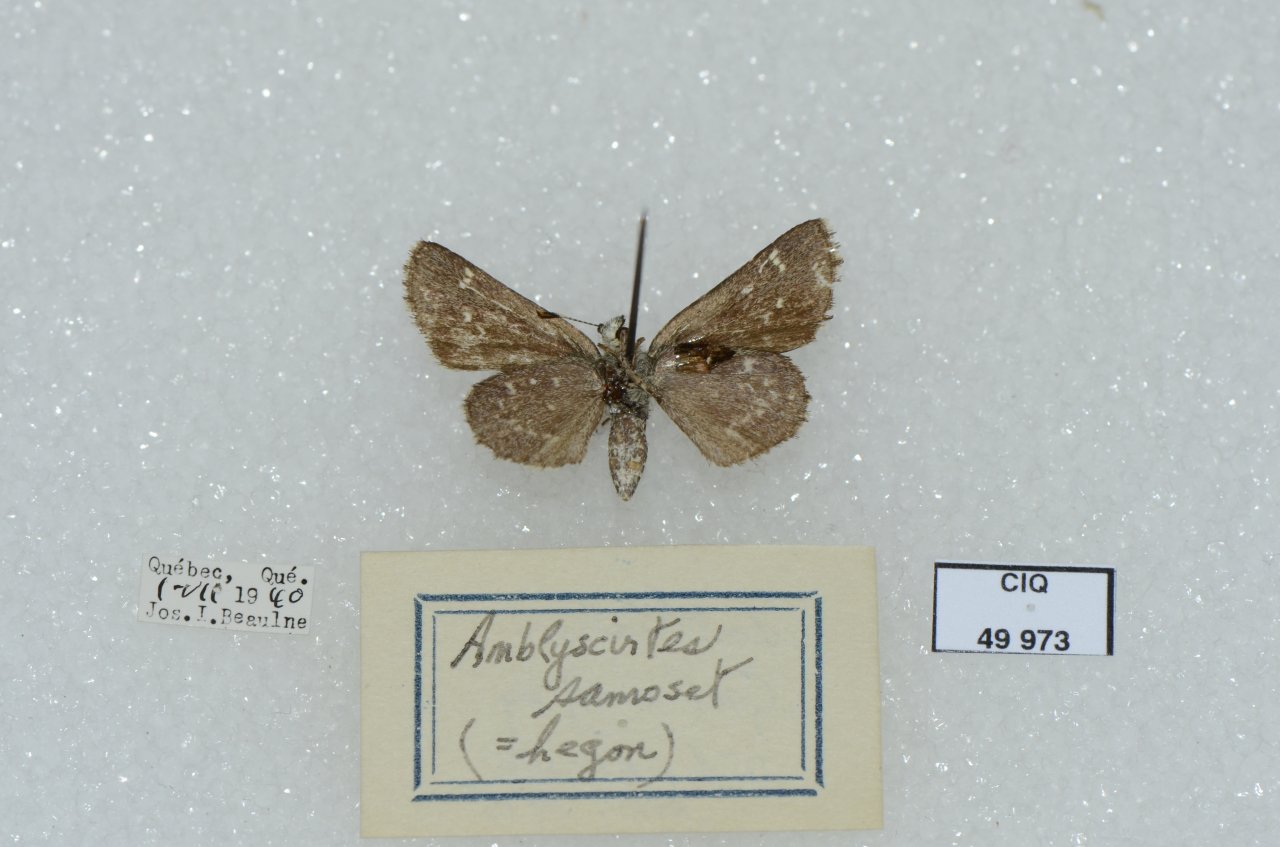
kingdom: Animalia
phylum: Arthropoda
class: Insecta
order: Lepidoptera
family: Hesperiidae
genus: Mastor
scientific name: Mastor hegon
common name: Pepper and Salt Skipper
